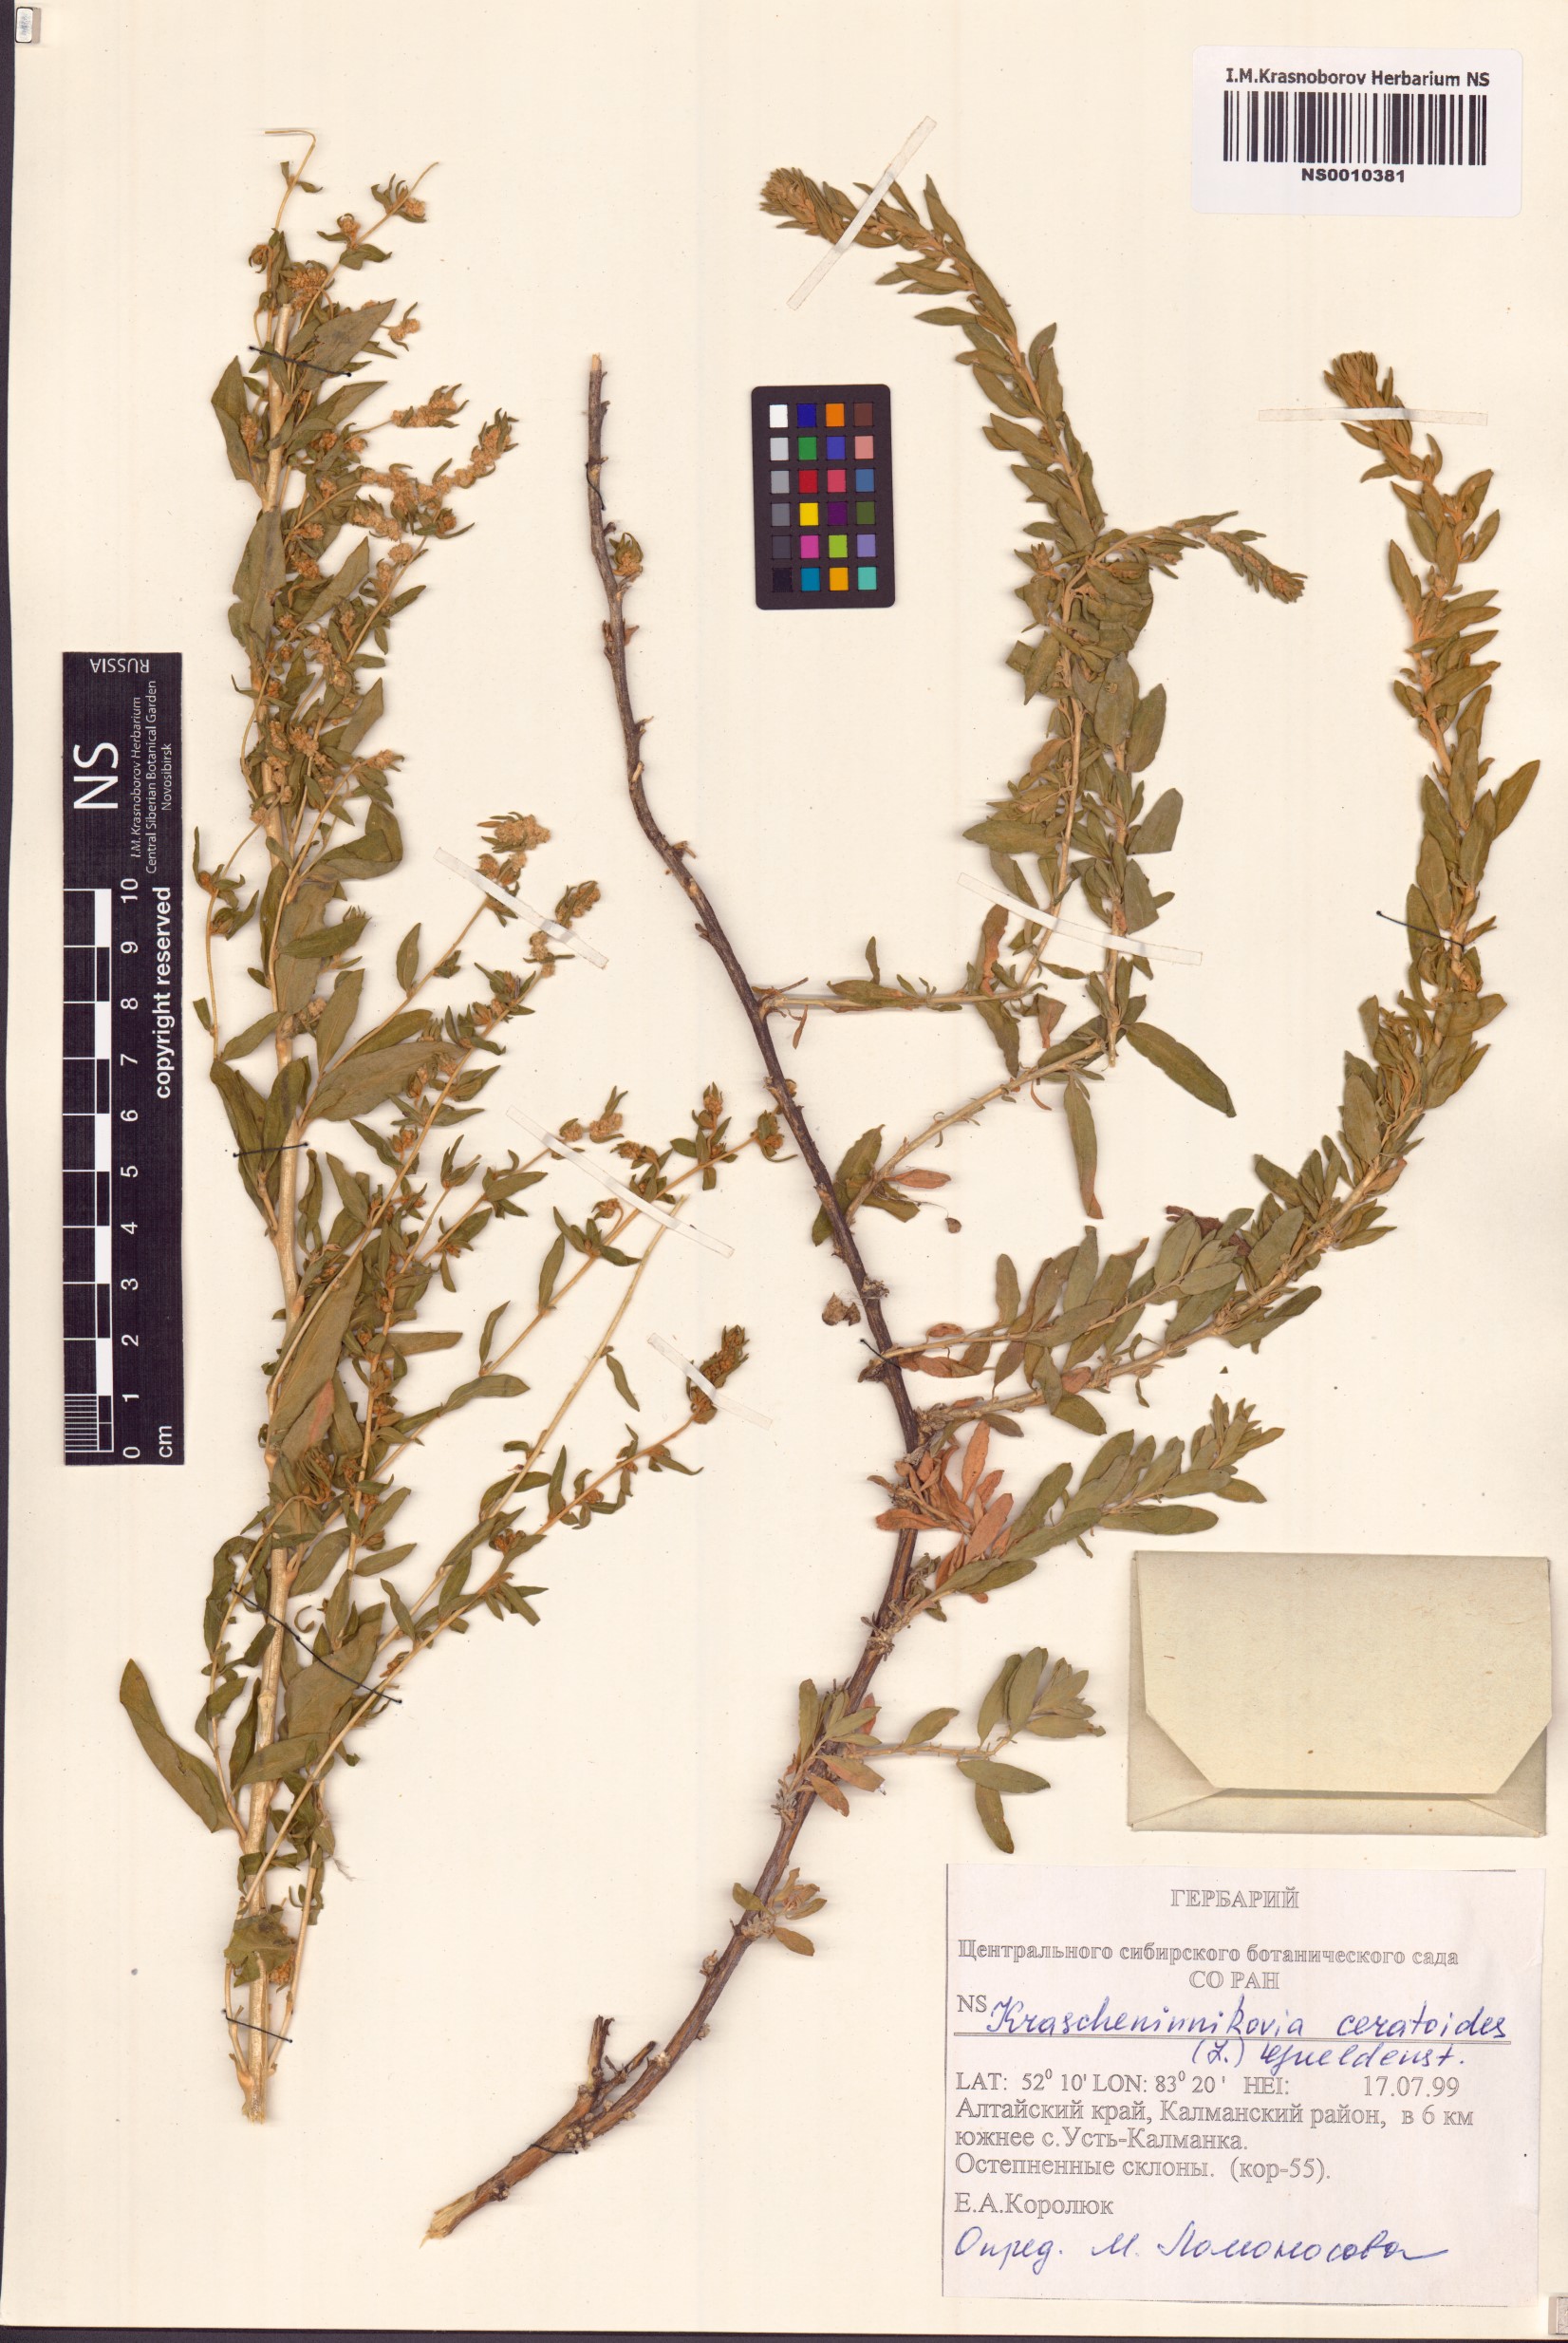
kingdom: Plantae
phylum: Tracheophyta
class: Magnoliopsida
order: Caryophyllales
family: Amaranthaceae
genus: Krascheninnikovia
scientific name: Krascheninnikovia ceratoides
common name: Pamirian winterfat
